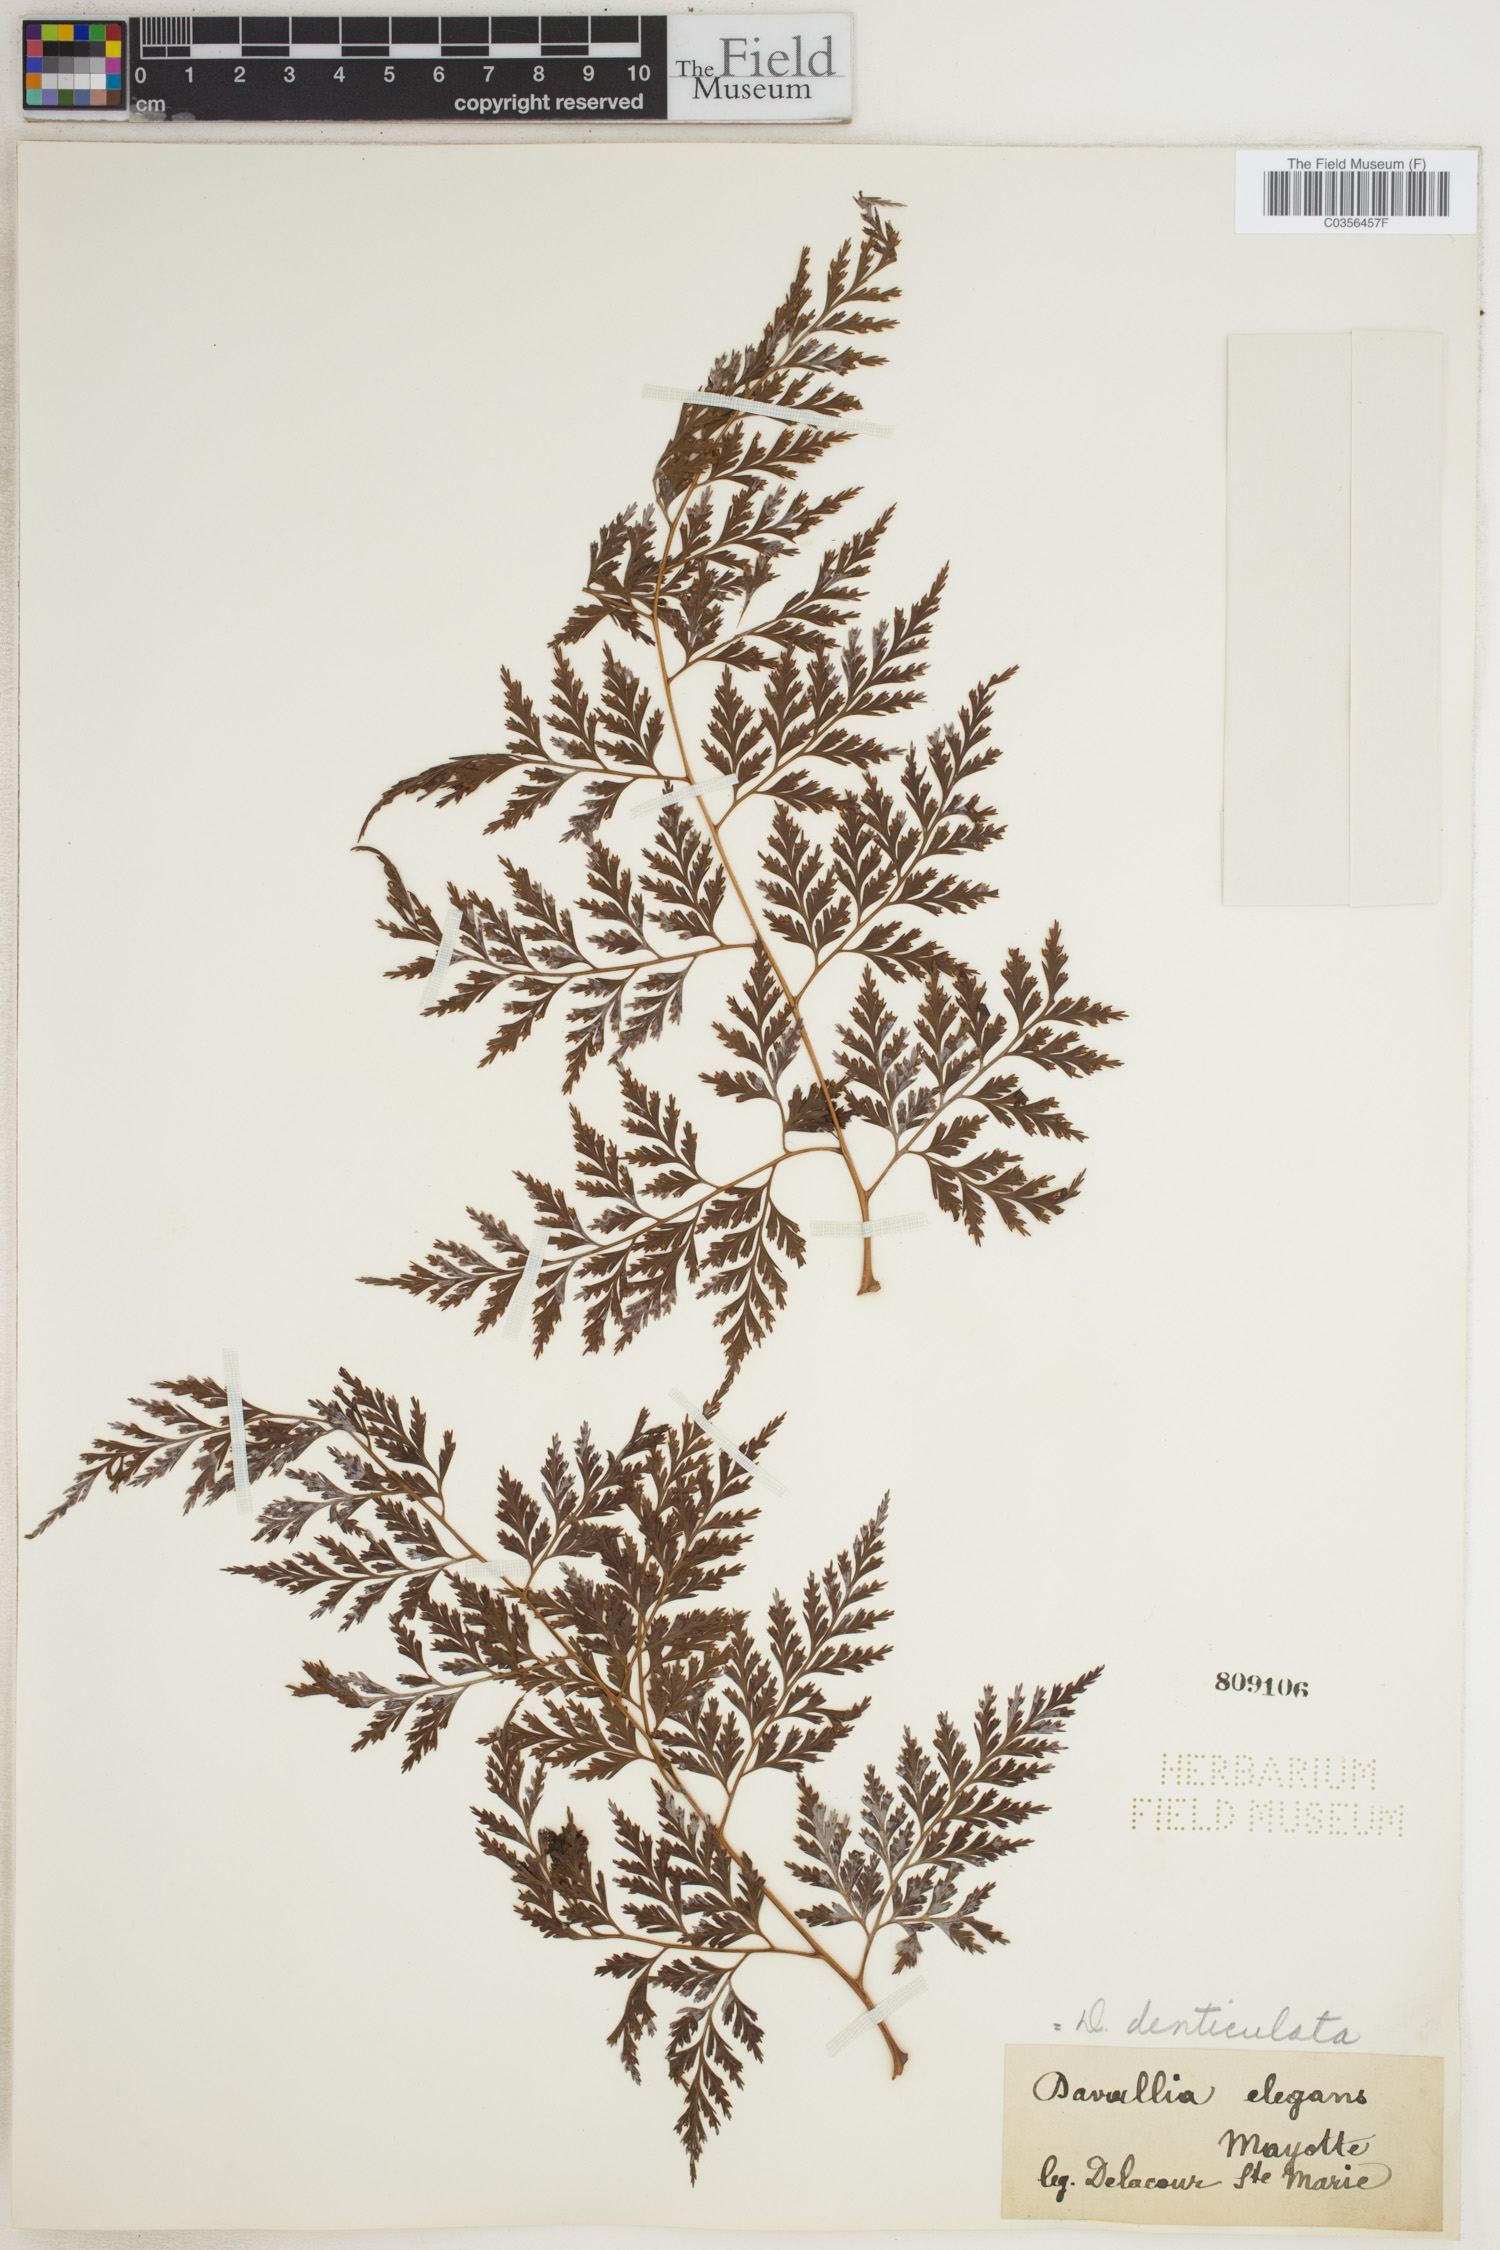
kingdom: Plantae
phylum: Tracheophyta
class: Polypodiopsida
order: Polypodiales
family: Davalliaceae
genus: Davallia
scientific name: Davallia denticulata
